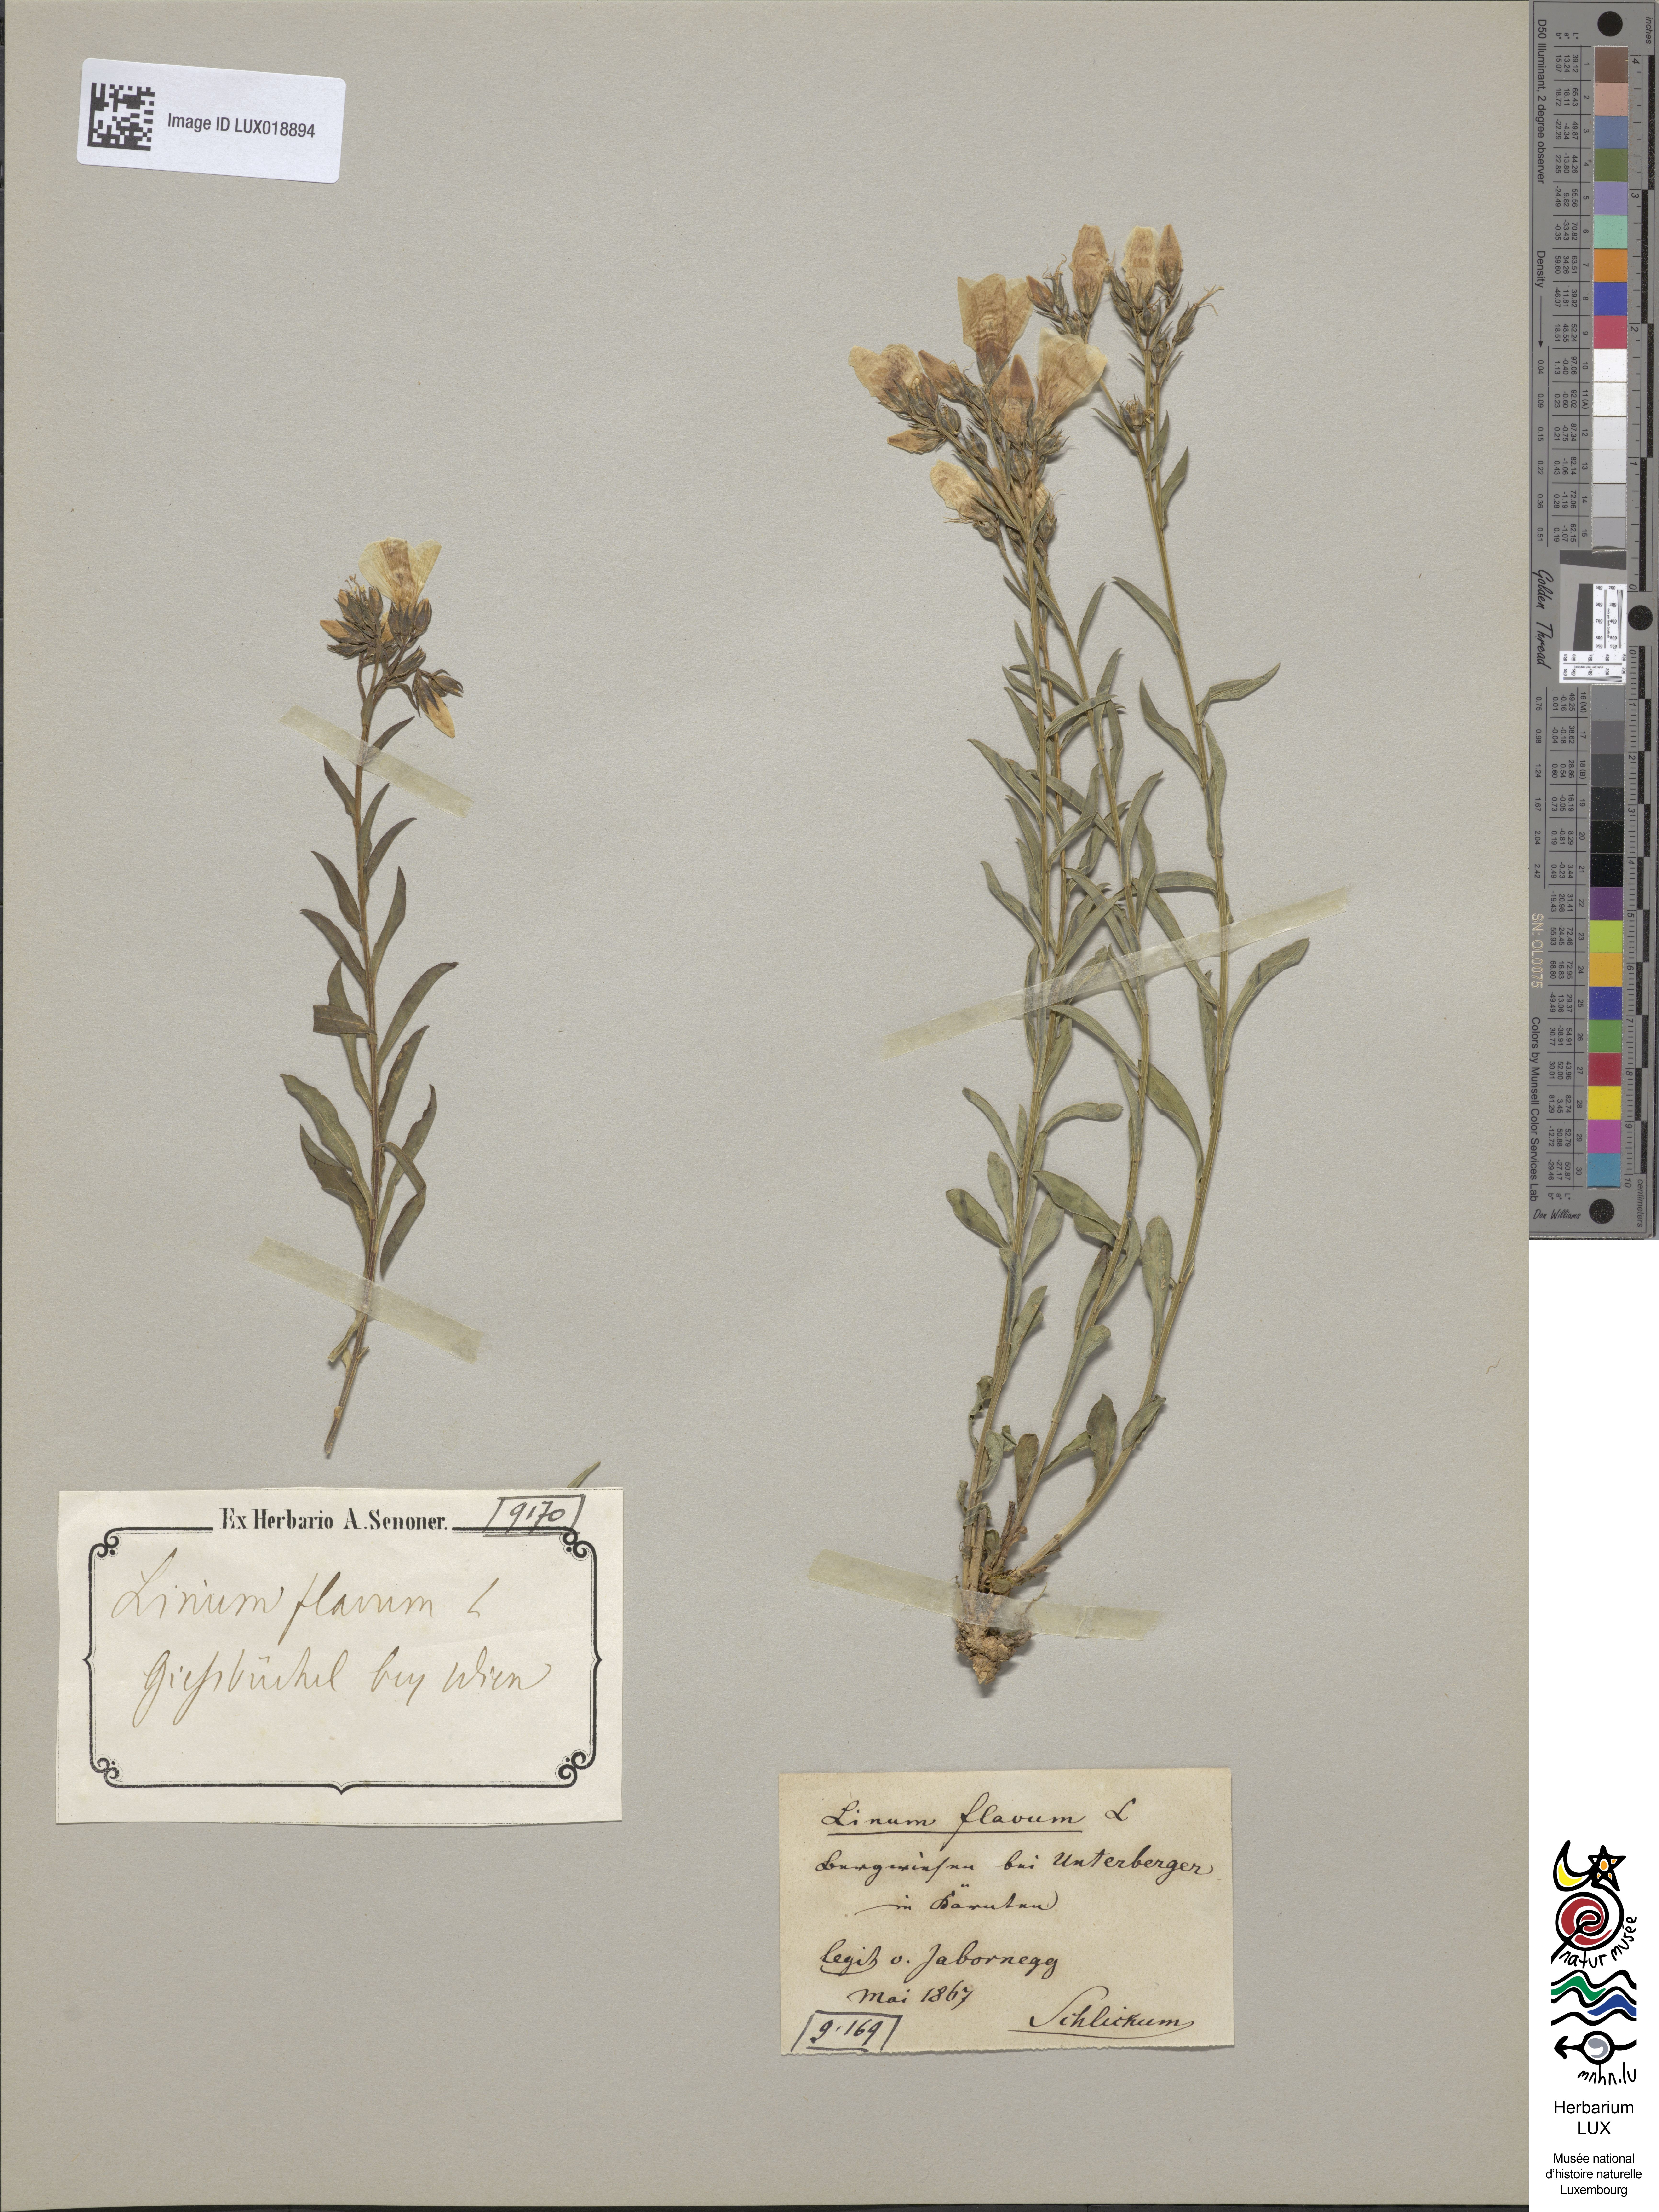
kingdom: Plantae
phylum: Tracheophyta
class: Magnoliopsida
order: Malpighiales
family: Linaceae
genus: Linum
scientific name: Linum flavum
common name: Yellow flax
